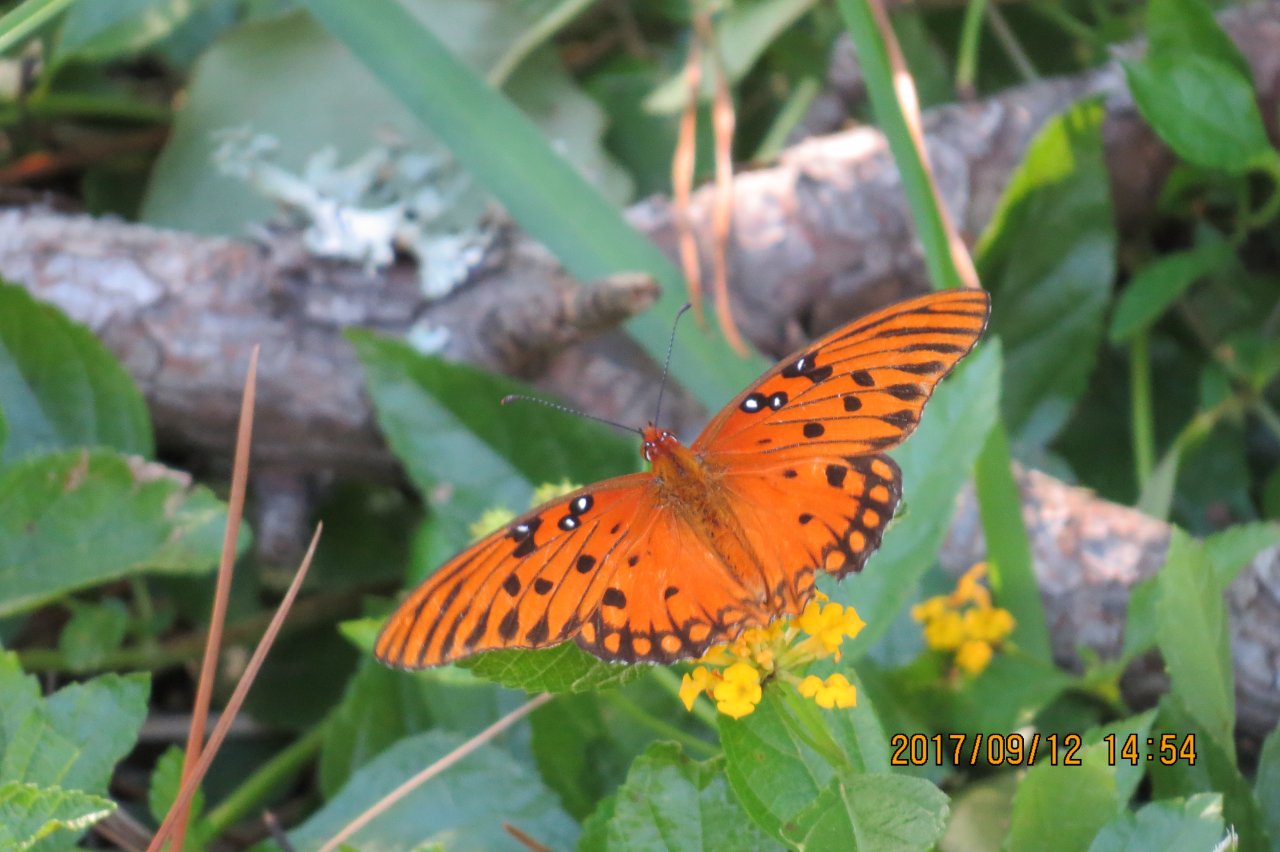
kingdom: Animalia
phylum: Arthropoda
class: Insecta
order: Lepidoptera
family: Nymphalidae
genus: Dione
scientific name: Dione vanillae
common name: Gulf Fritillary
